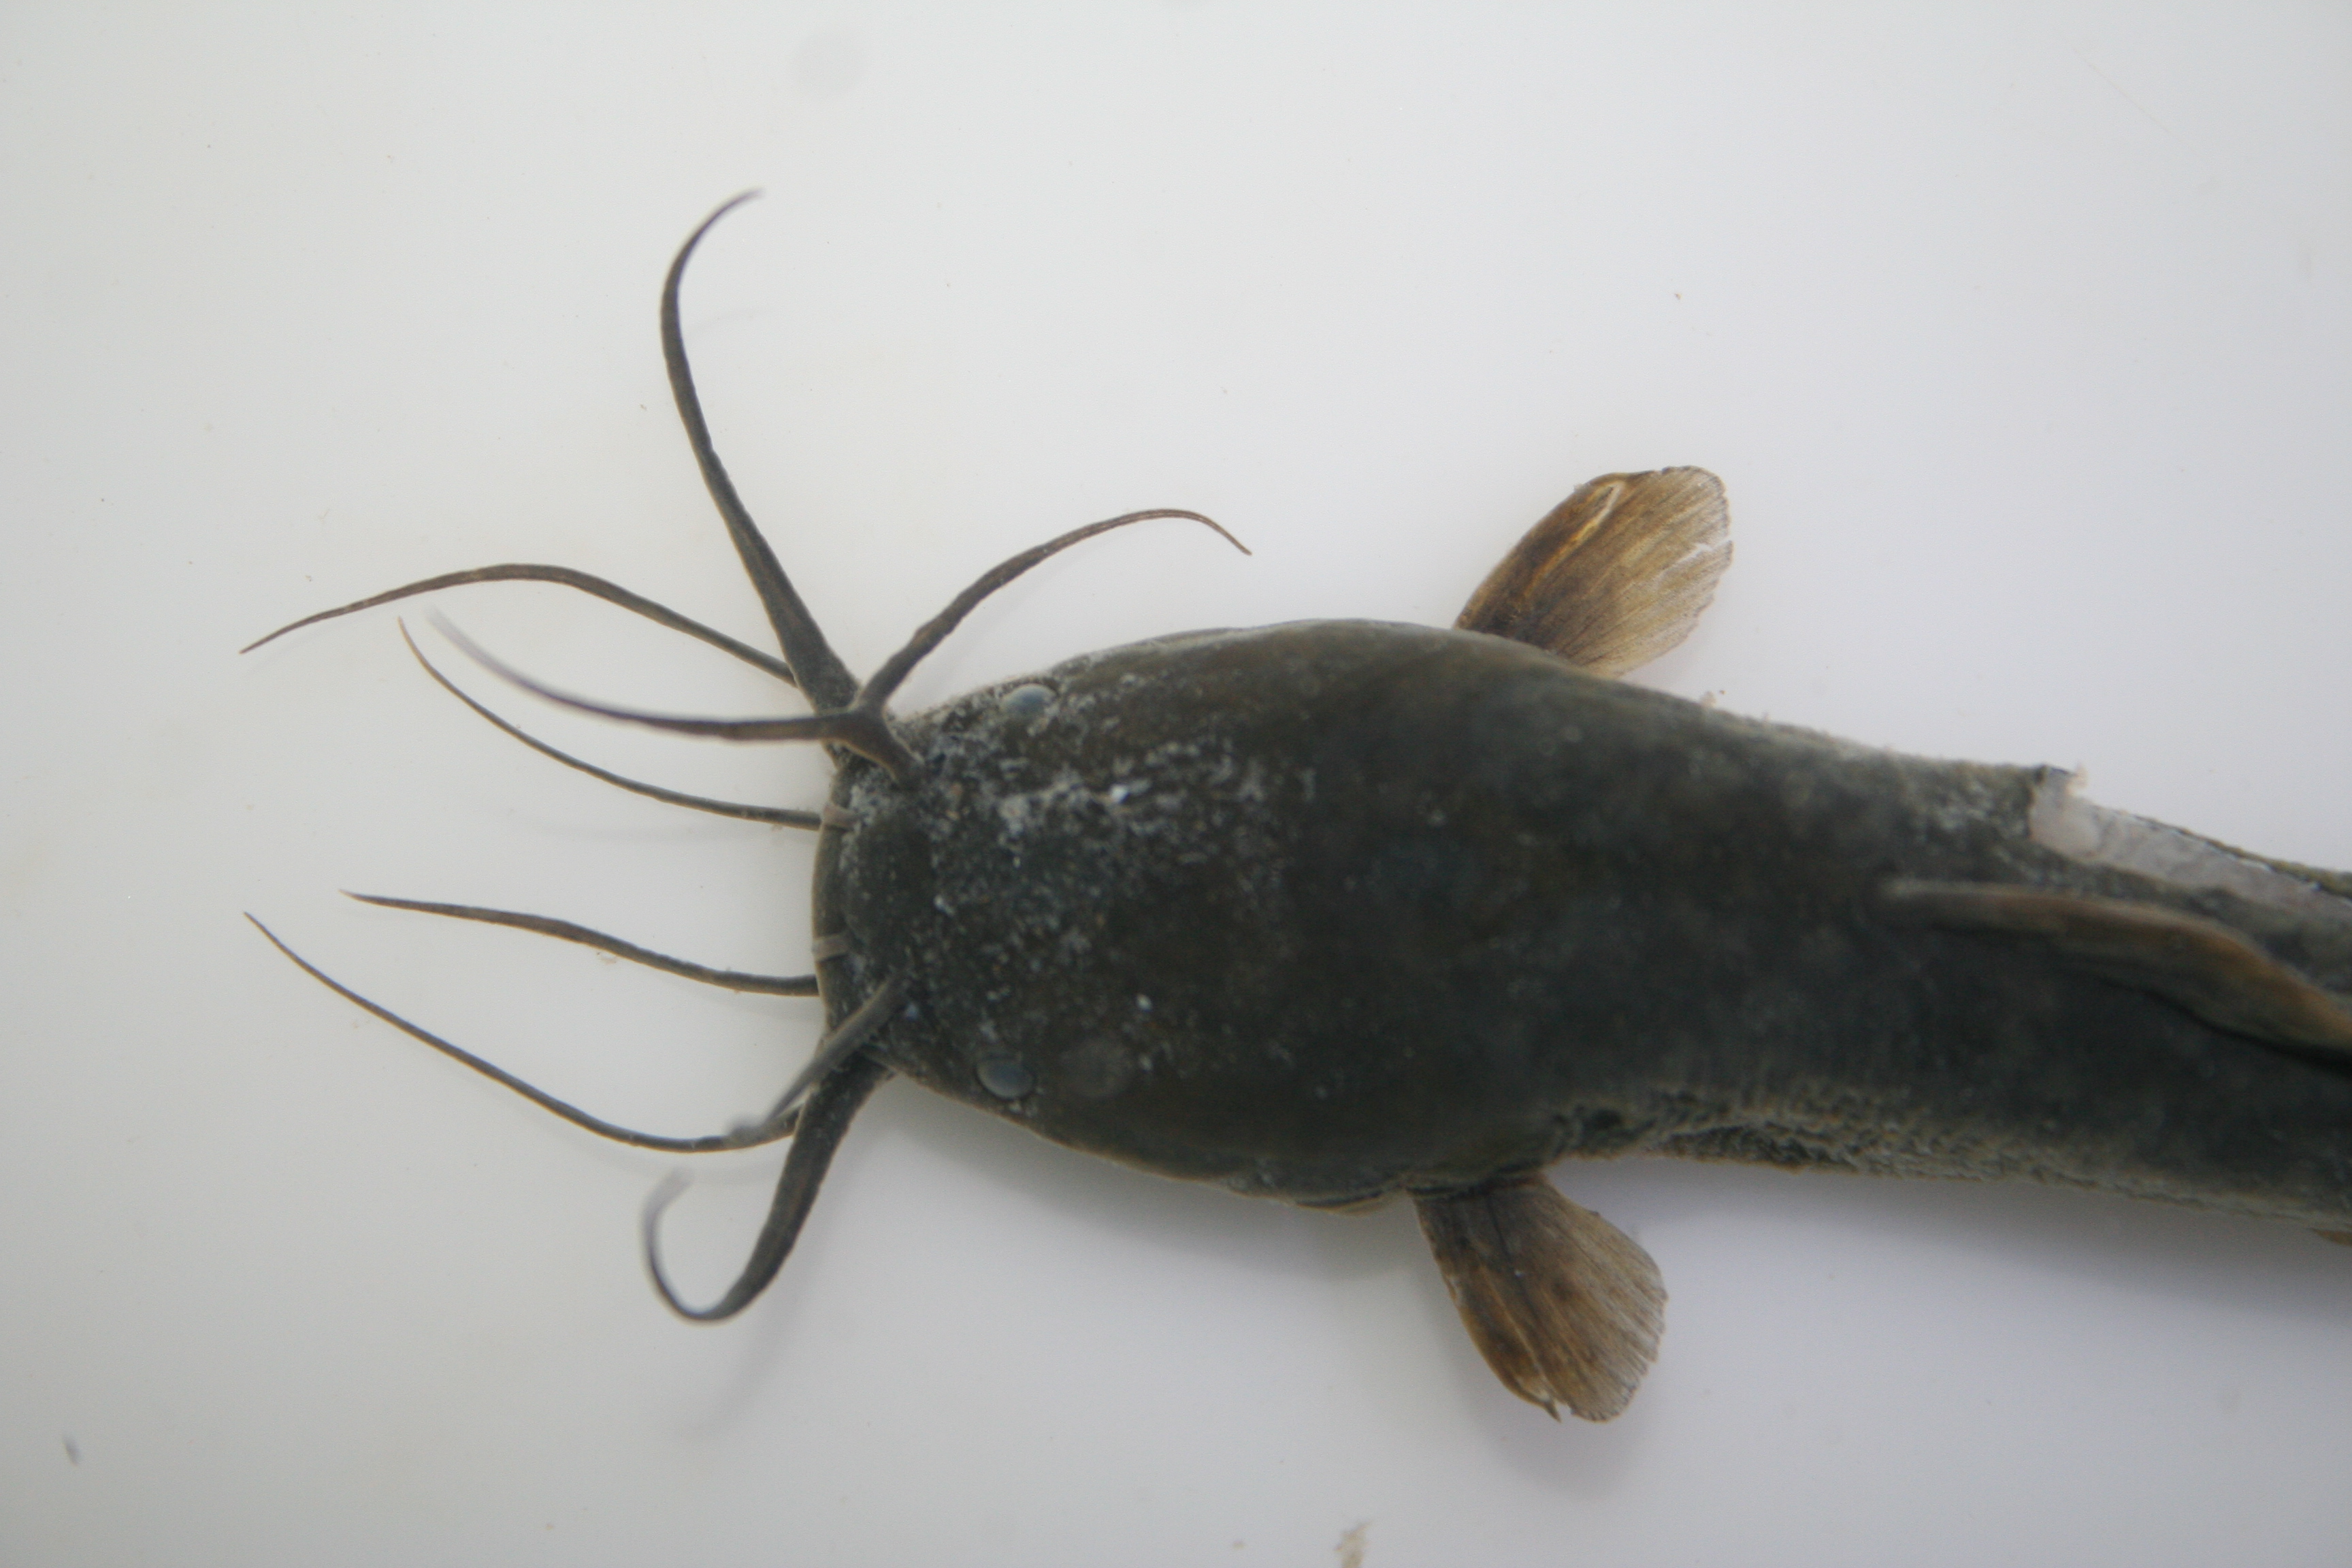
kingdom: Animalia
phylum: Chordata
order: Siluriformes
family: Clariidae
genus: Clarias
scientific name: Clarias
